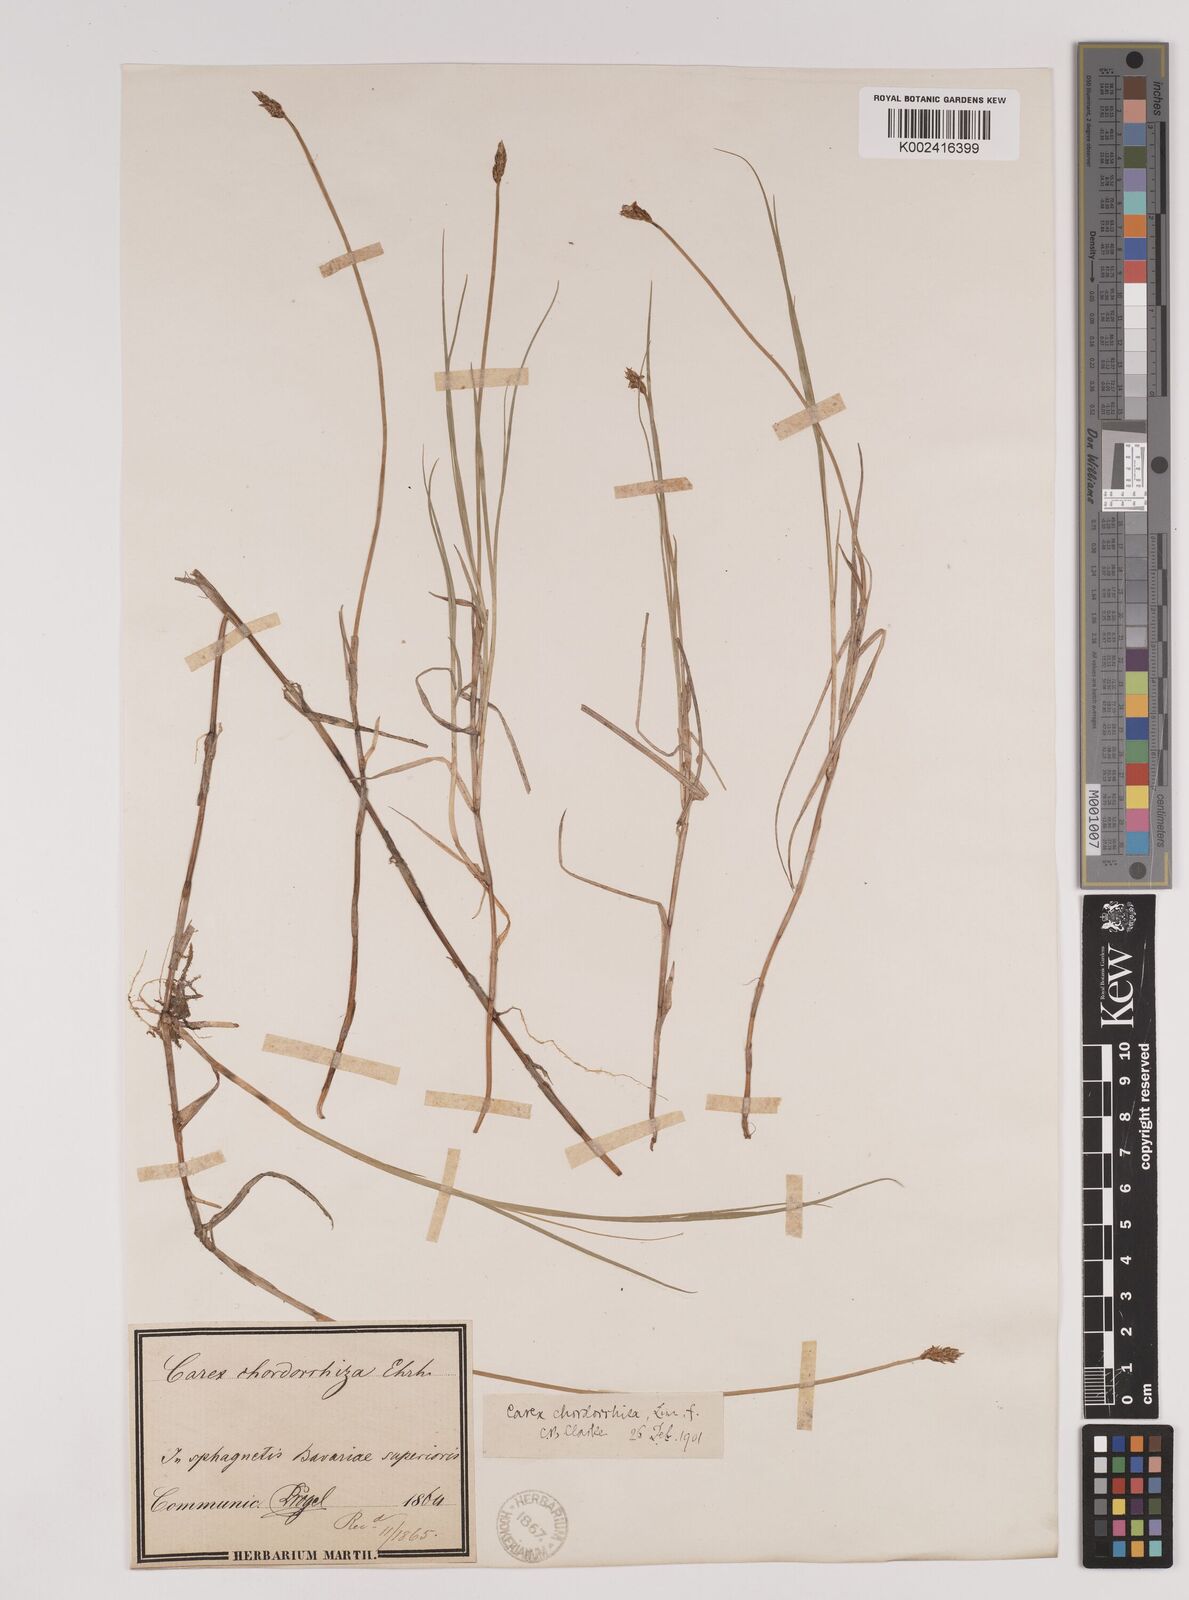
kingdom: Plantae
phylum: Tracheophyta
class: Liliopsida
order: Poales
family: Cyperaceae
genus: Carex
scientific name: Carex chordorrhiza
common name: String sedge
